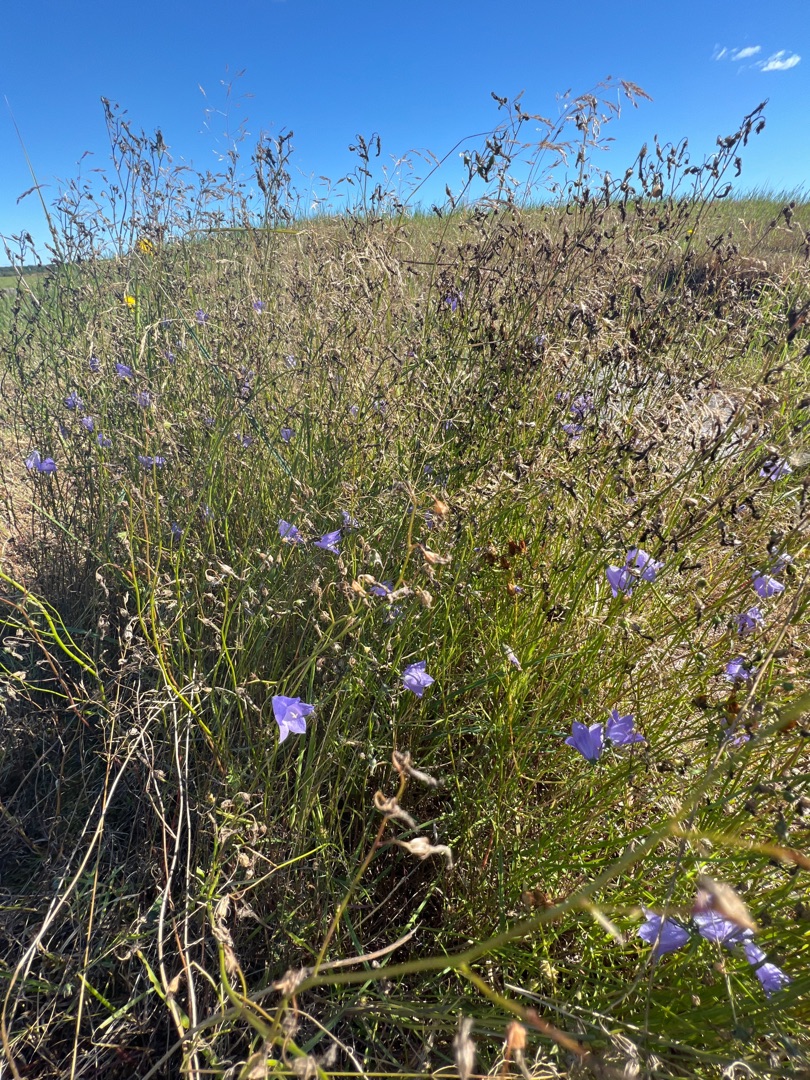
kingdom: Plantae
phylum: Tracheophyta
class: Magnoliopsida
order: Asterales
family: Campanulaceae
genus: Campanula
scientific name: Campanula rotundifolia
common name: Liden klokke
